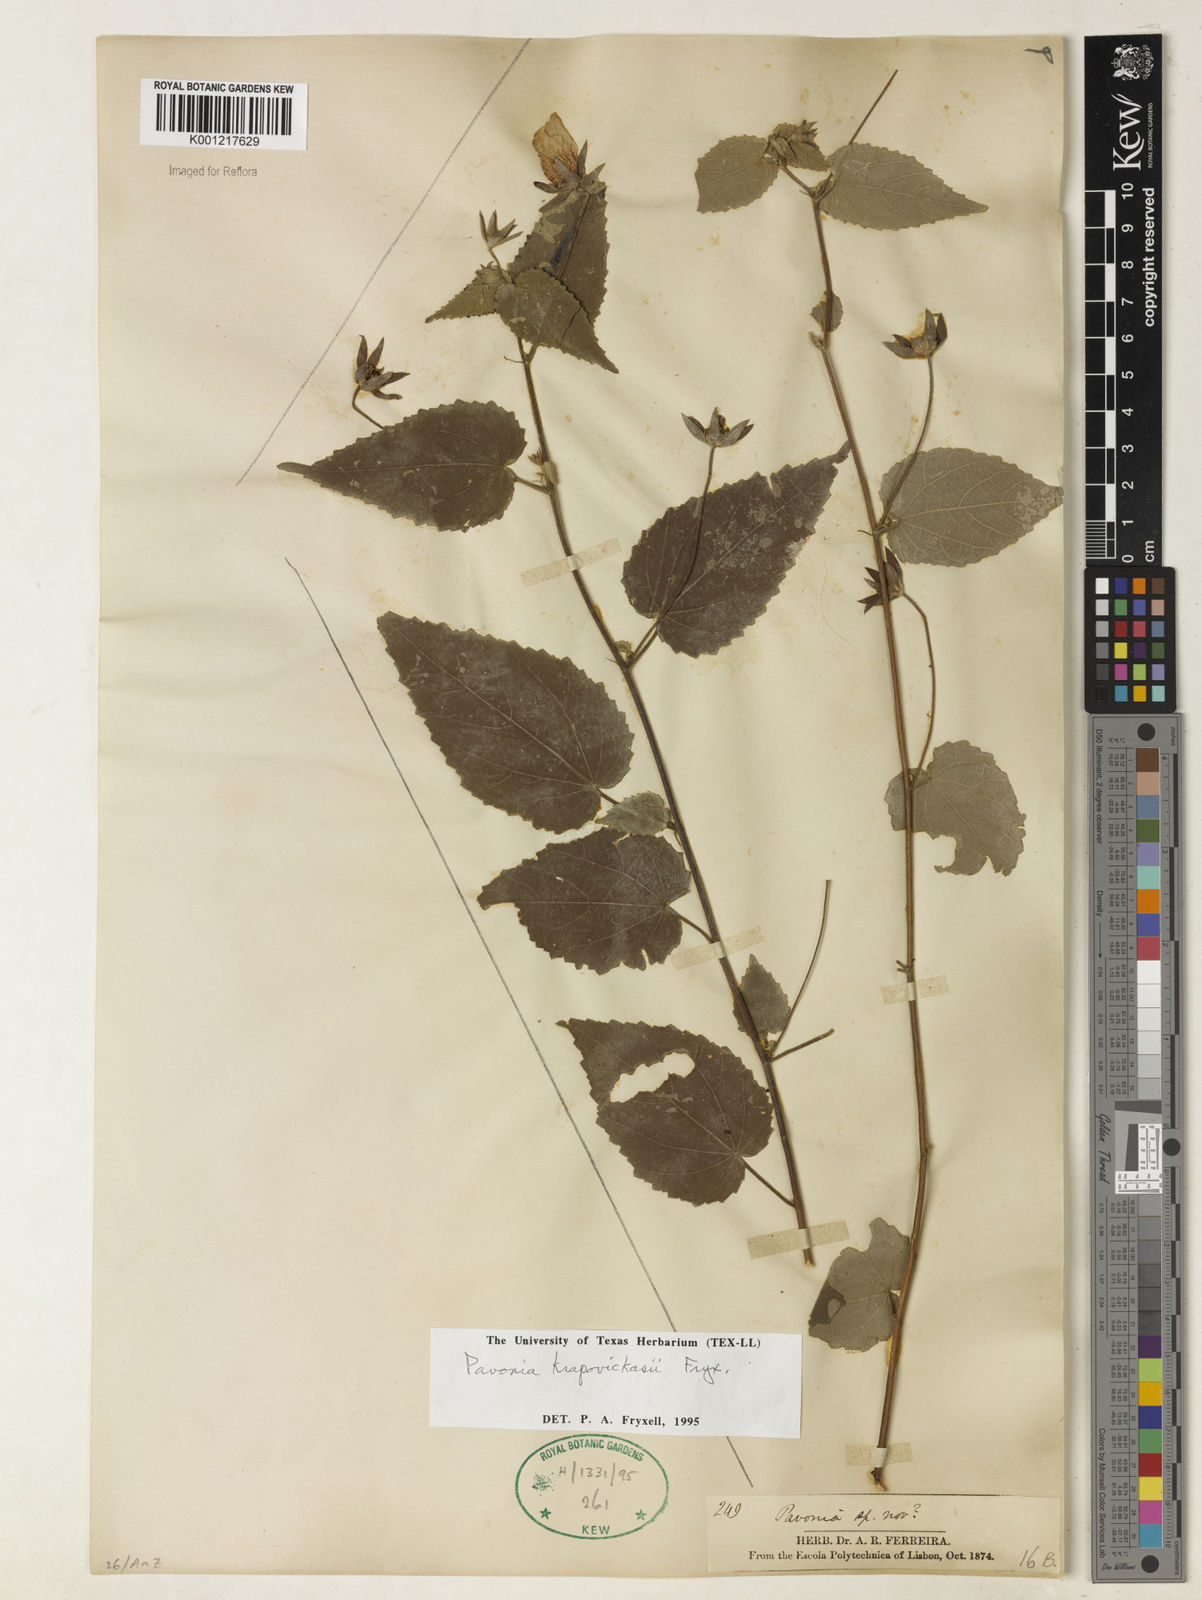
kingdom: Plantae
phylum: Tracheophyta
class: Magnoliopsida
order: Malvales
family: Malvaceae
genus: Pavonia
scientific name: Pavonia krapovickasii
